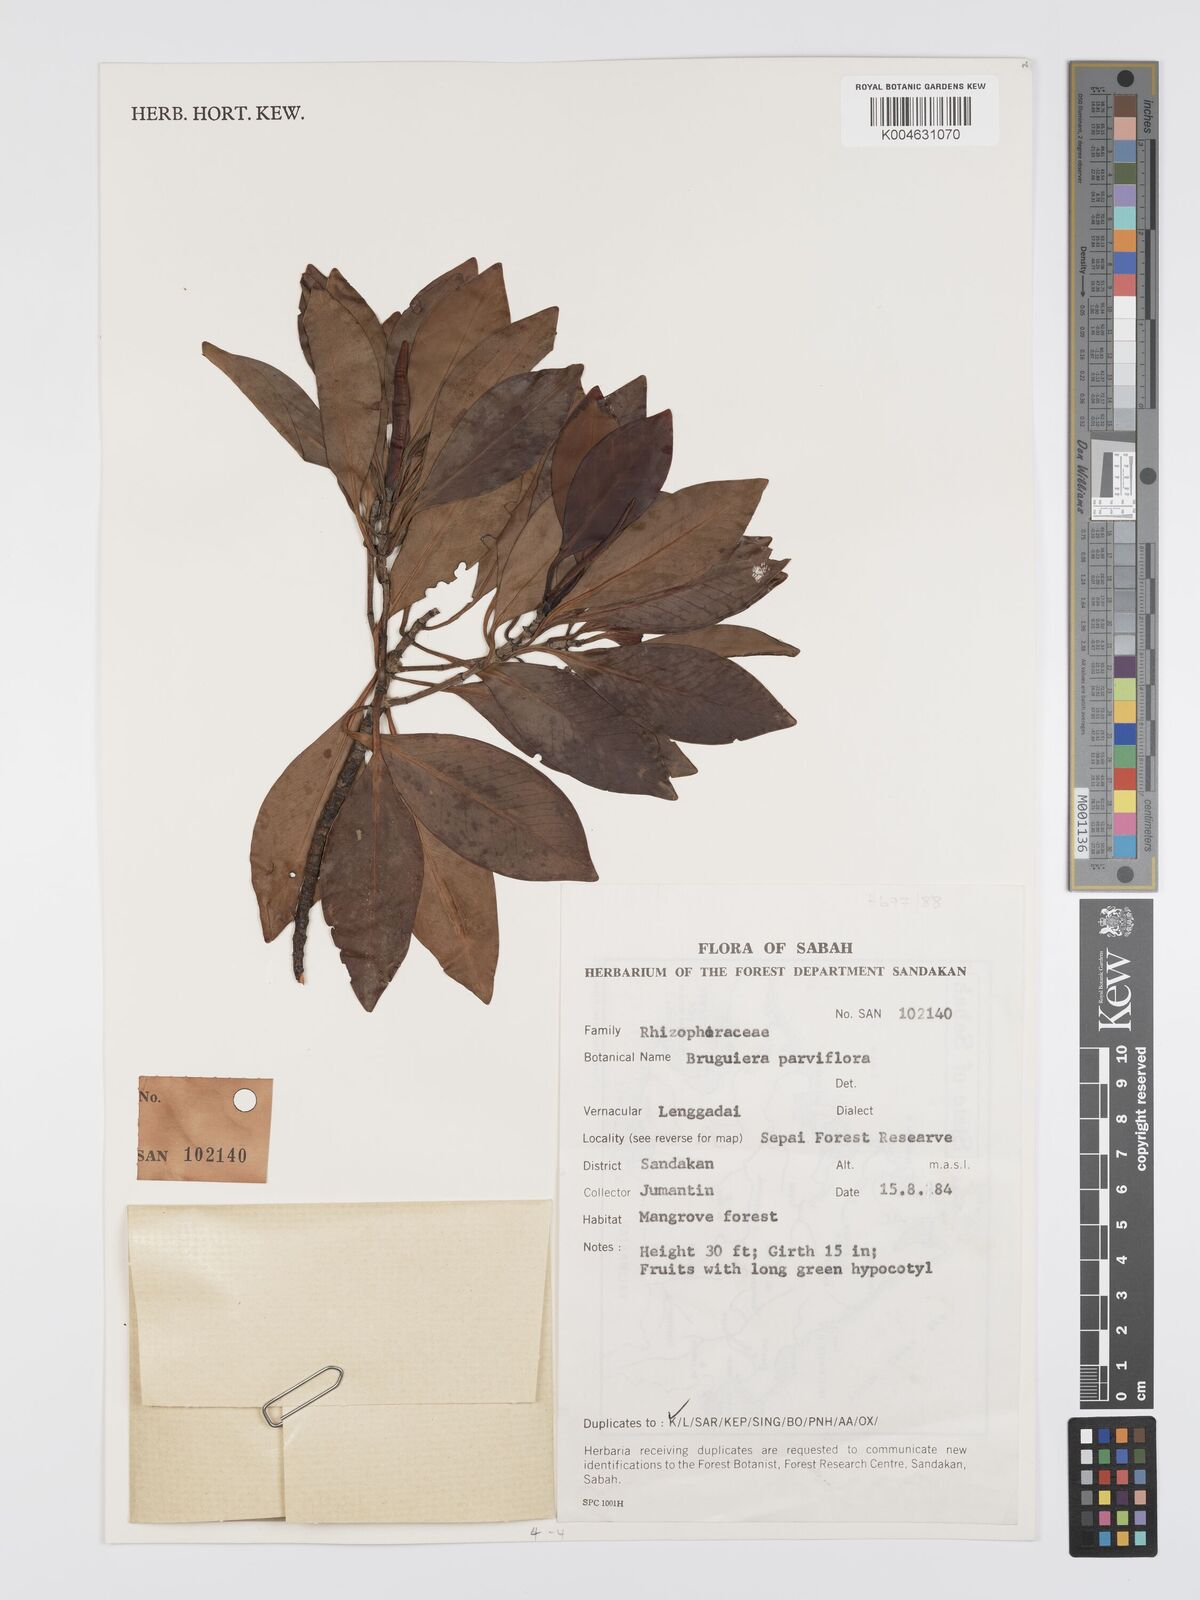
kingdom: Plantae
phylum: Tracheophyta
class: Magnoliopsida
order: Malpighiales
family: Rhizophoraceae
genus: Bruguiera
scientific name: Bruguiera parviflora
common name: Smallflower bruguiera
